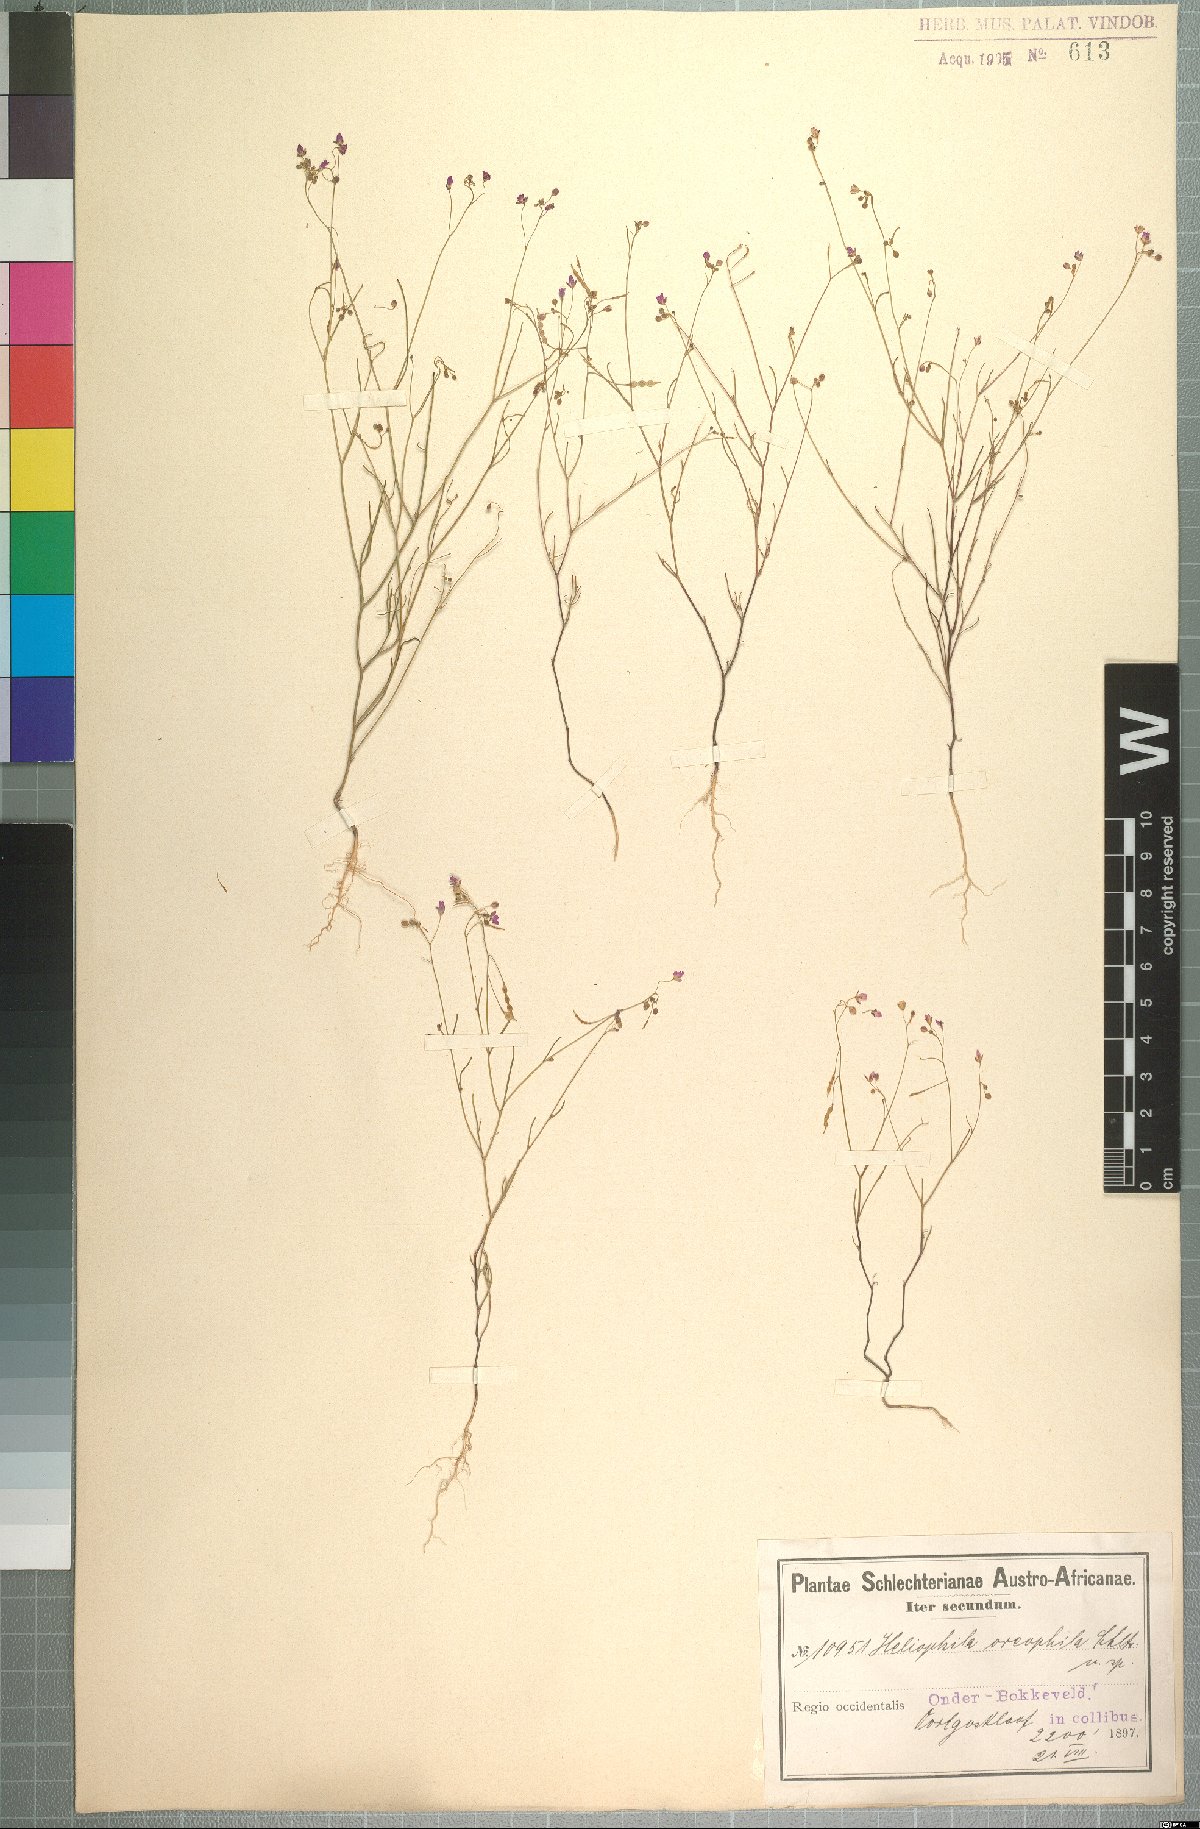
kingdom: Plantae
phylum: Tracheophyta
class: Magnoliopsida
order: Brassicales
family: Brassicaceae
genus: Heliophila
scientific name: Heliophila pinnata
